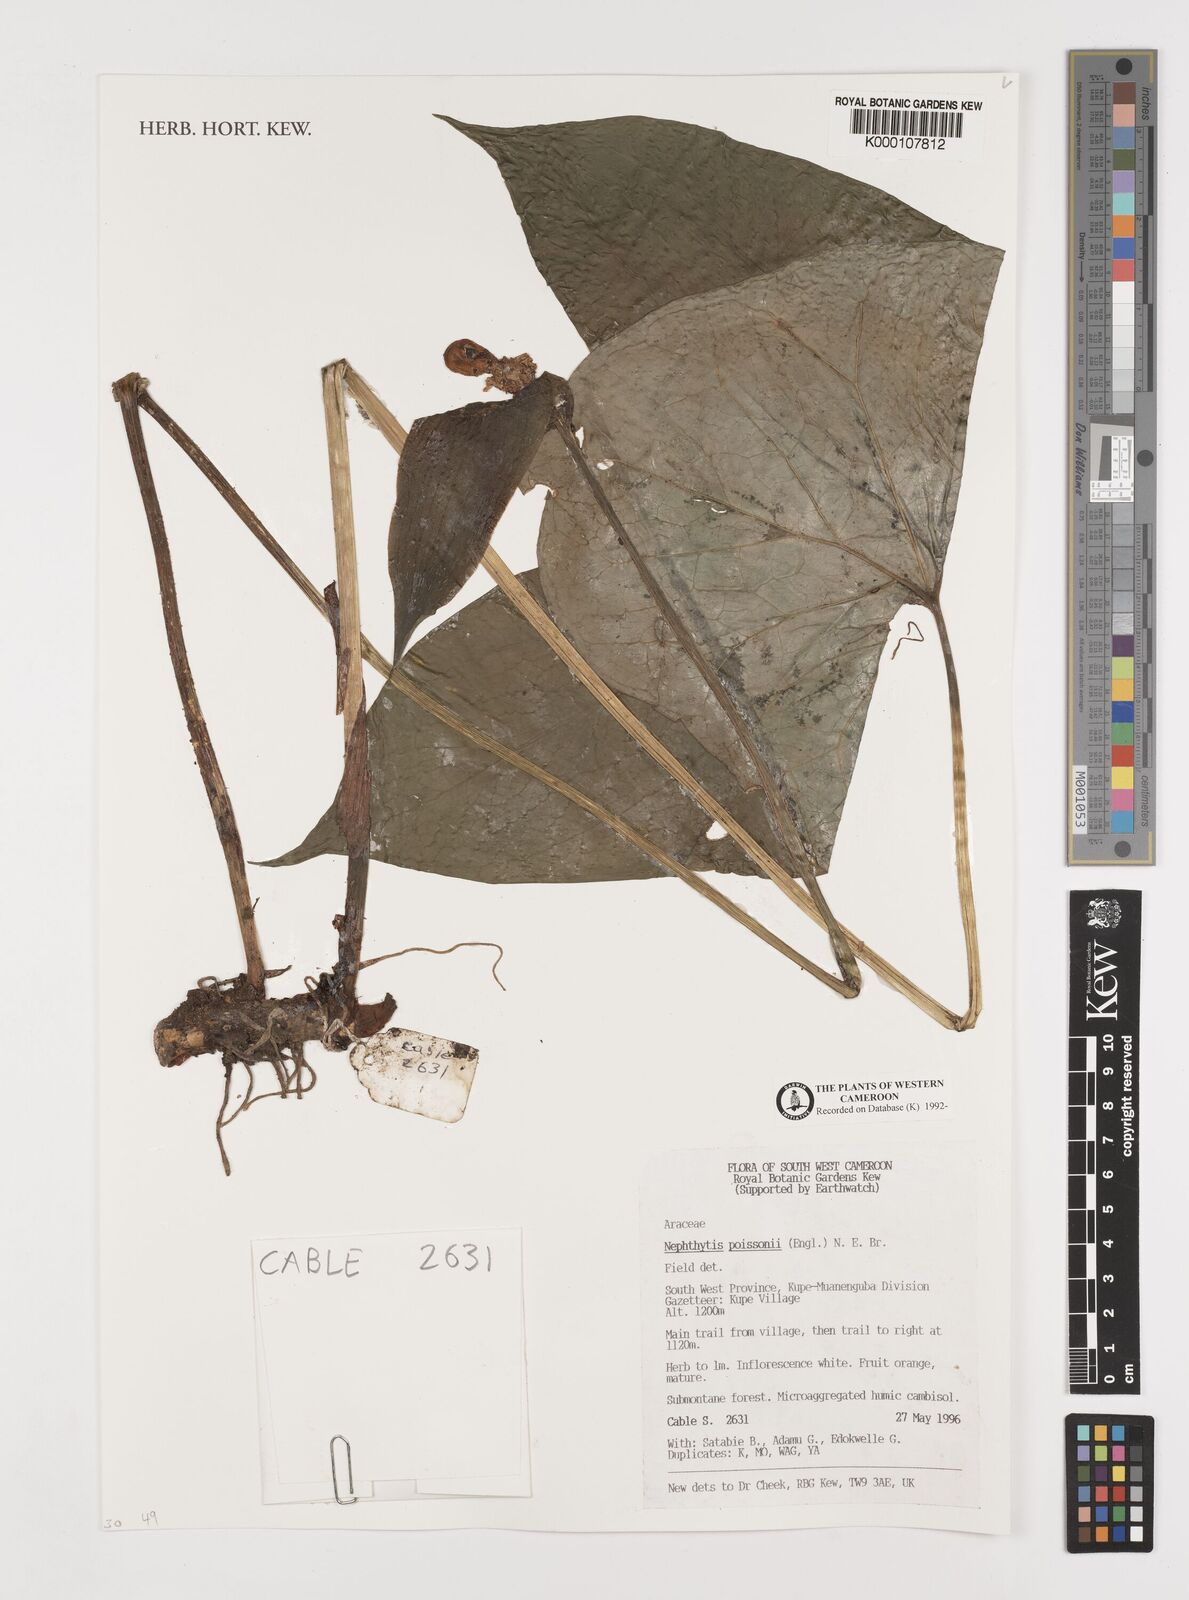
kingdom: Plantae
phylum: Tracheophyta
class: Liliopsida
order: Alismatales
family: Araceae
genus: Nephthytis
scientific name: Nephthytis poissonii
